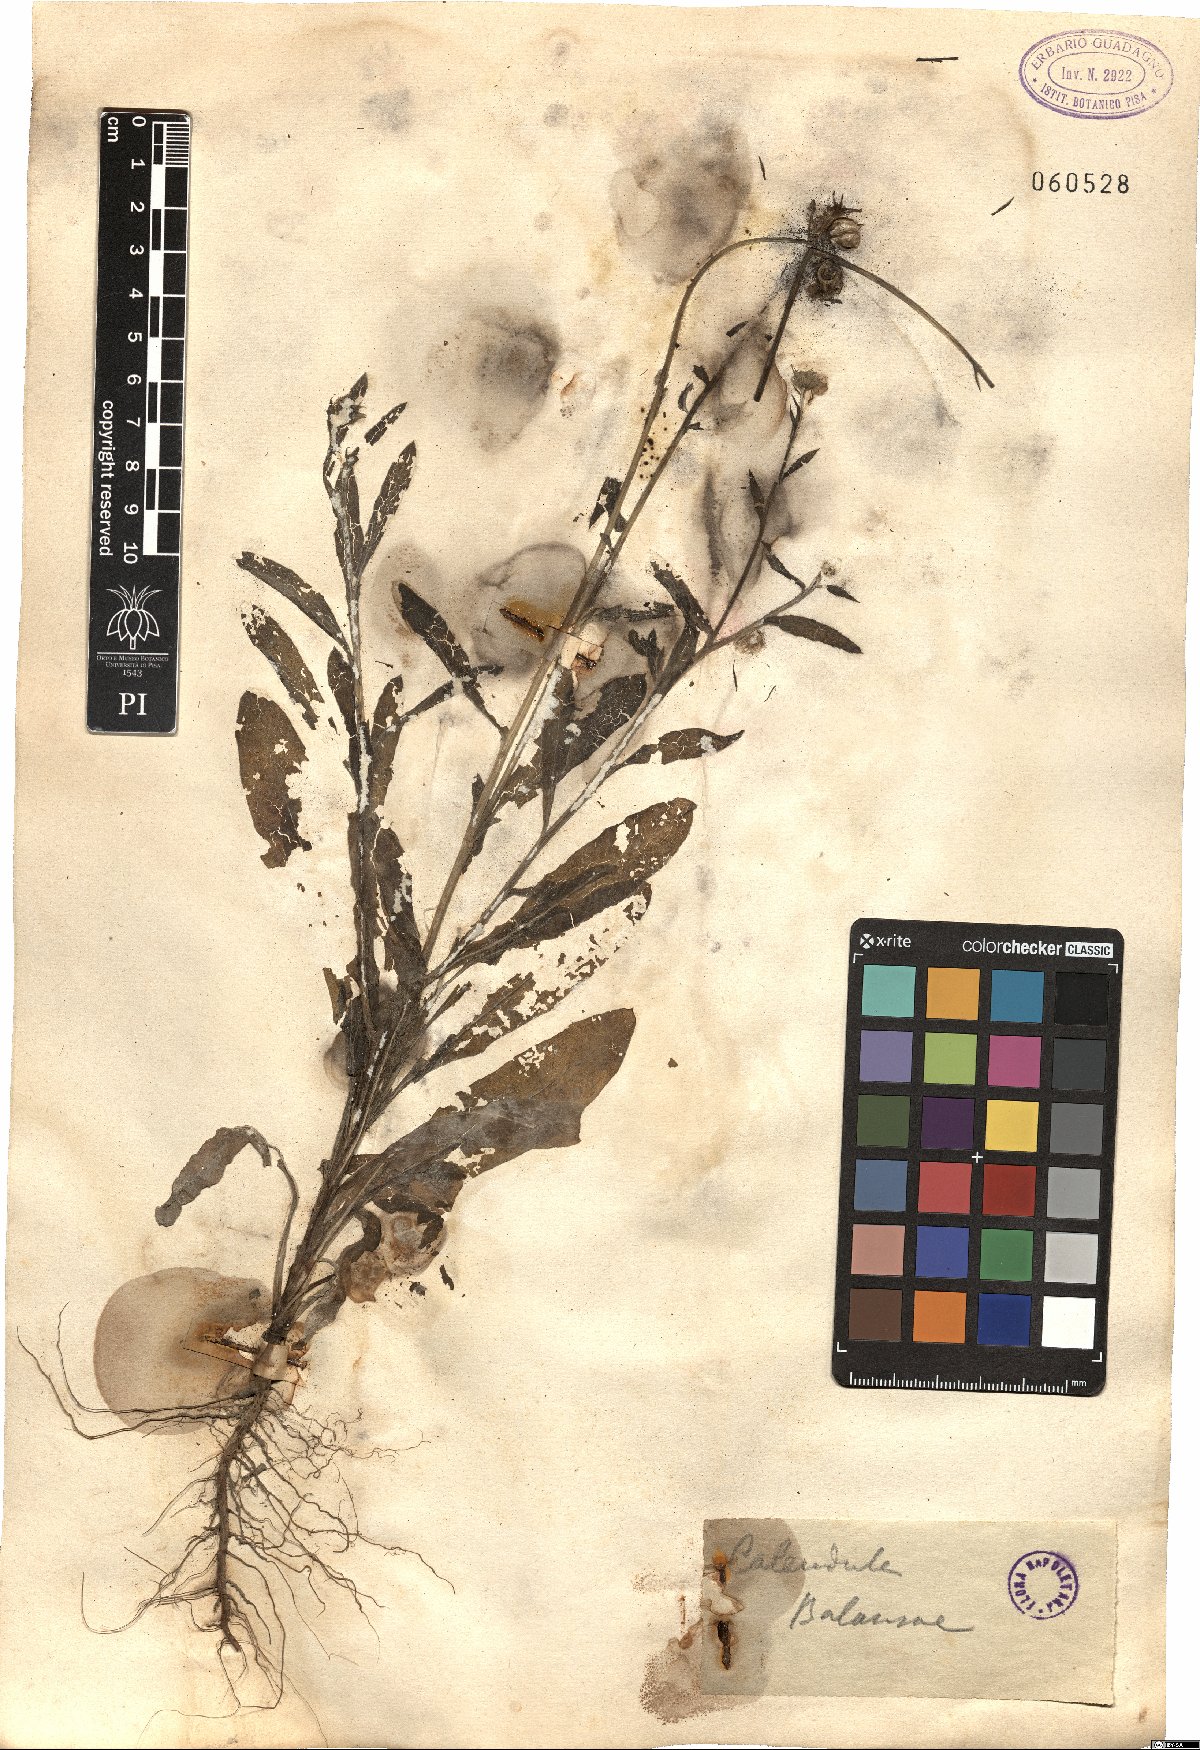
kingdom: Plantae
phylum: Tracheophyta
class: Magnoliopsida
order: Asterales
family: Asteraceae
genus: Calendula
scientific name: Calendula suffruticosa
